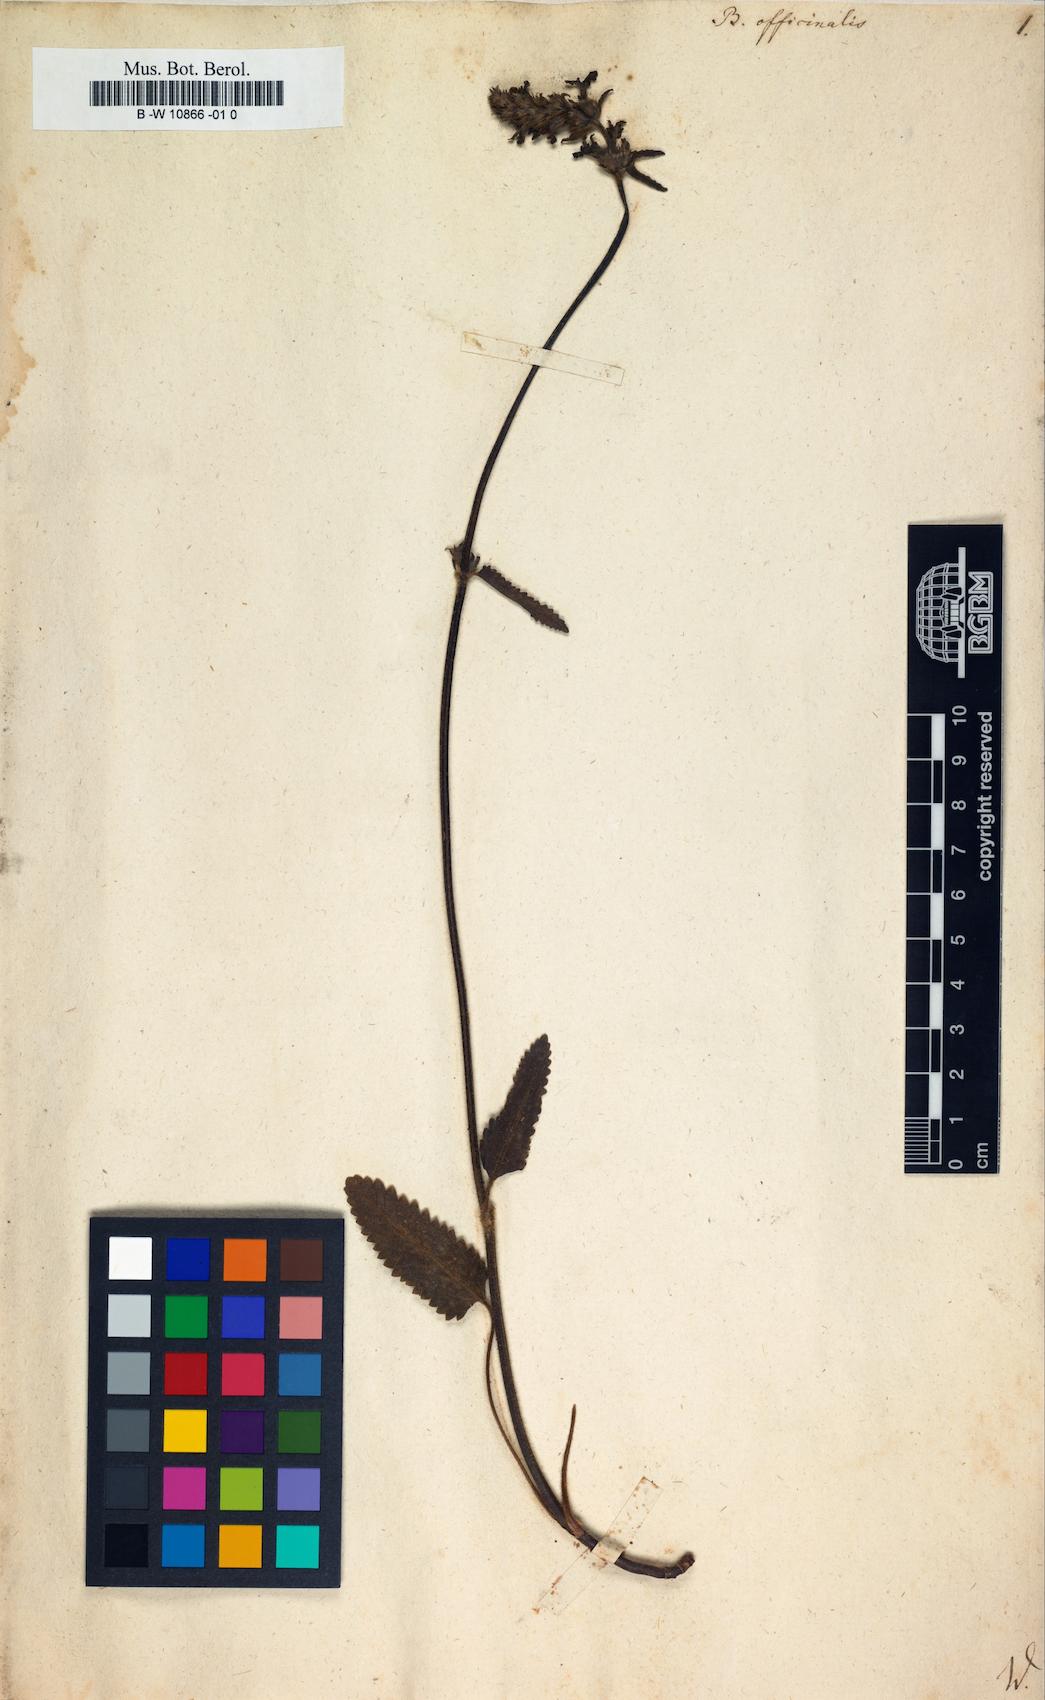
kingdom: Plantae
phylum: Tracheophyta
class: Magnoliopsida
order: Lamiales
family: Lamiaceae
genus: Betonica
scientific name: Betonica officinalis
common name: Bishop's-wort
